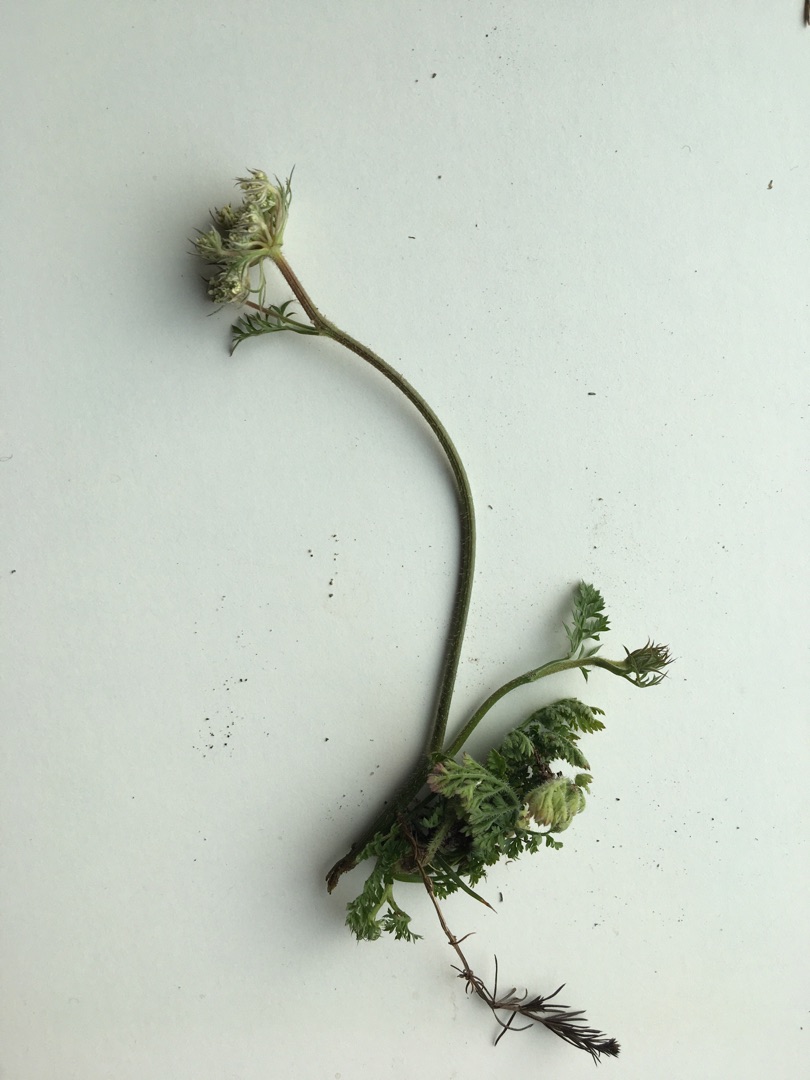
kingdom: Plantae
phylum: Tracheophyta
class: Magnoliopsida
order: Apiales
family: Apiaceae
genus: Daucus
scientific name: Daucus carota
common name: Gulerod
